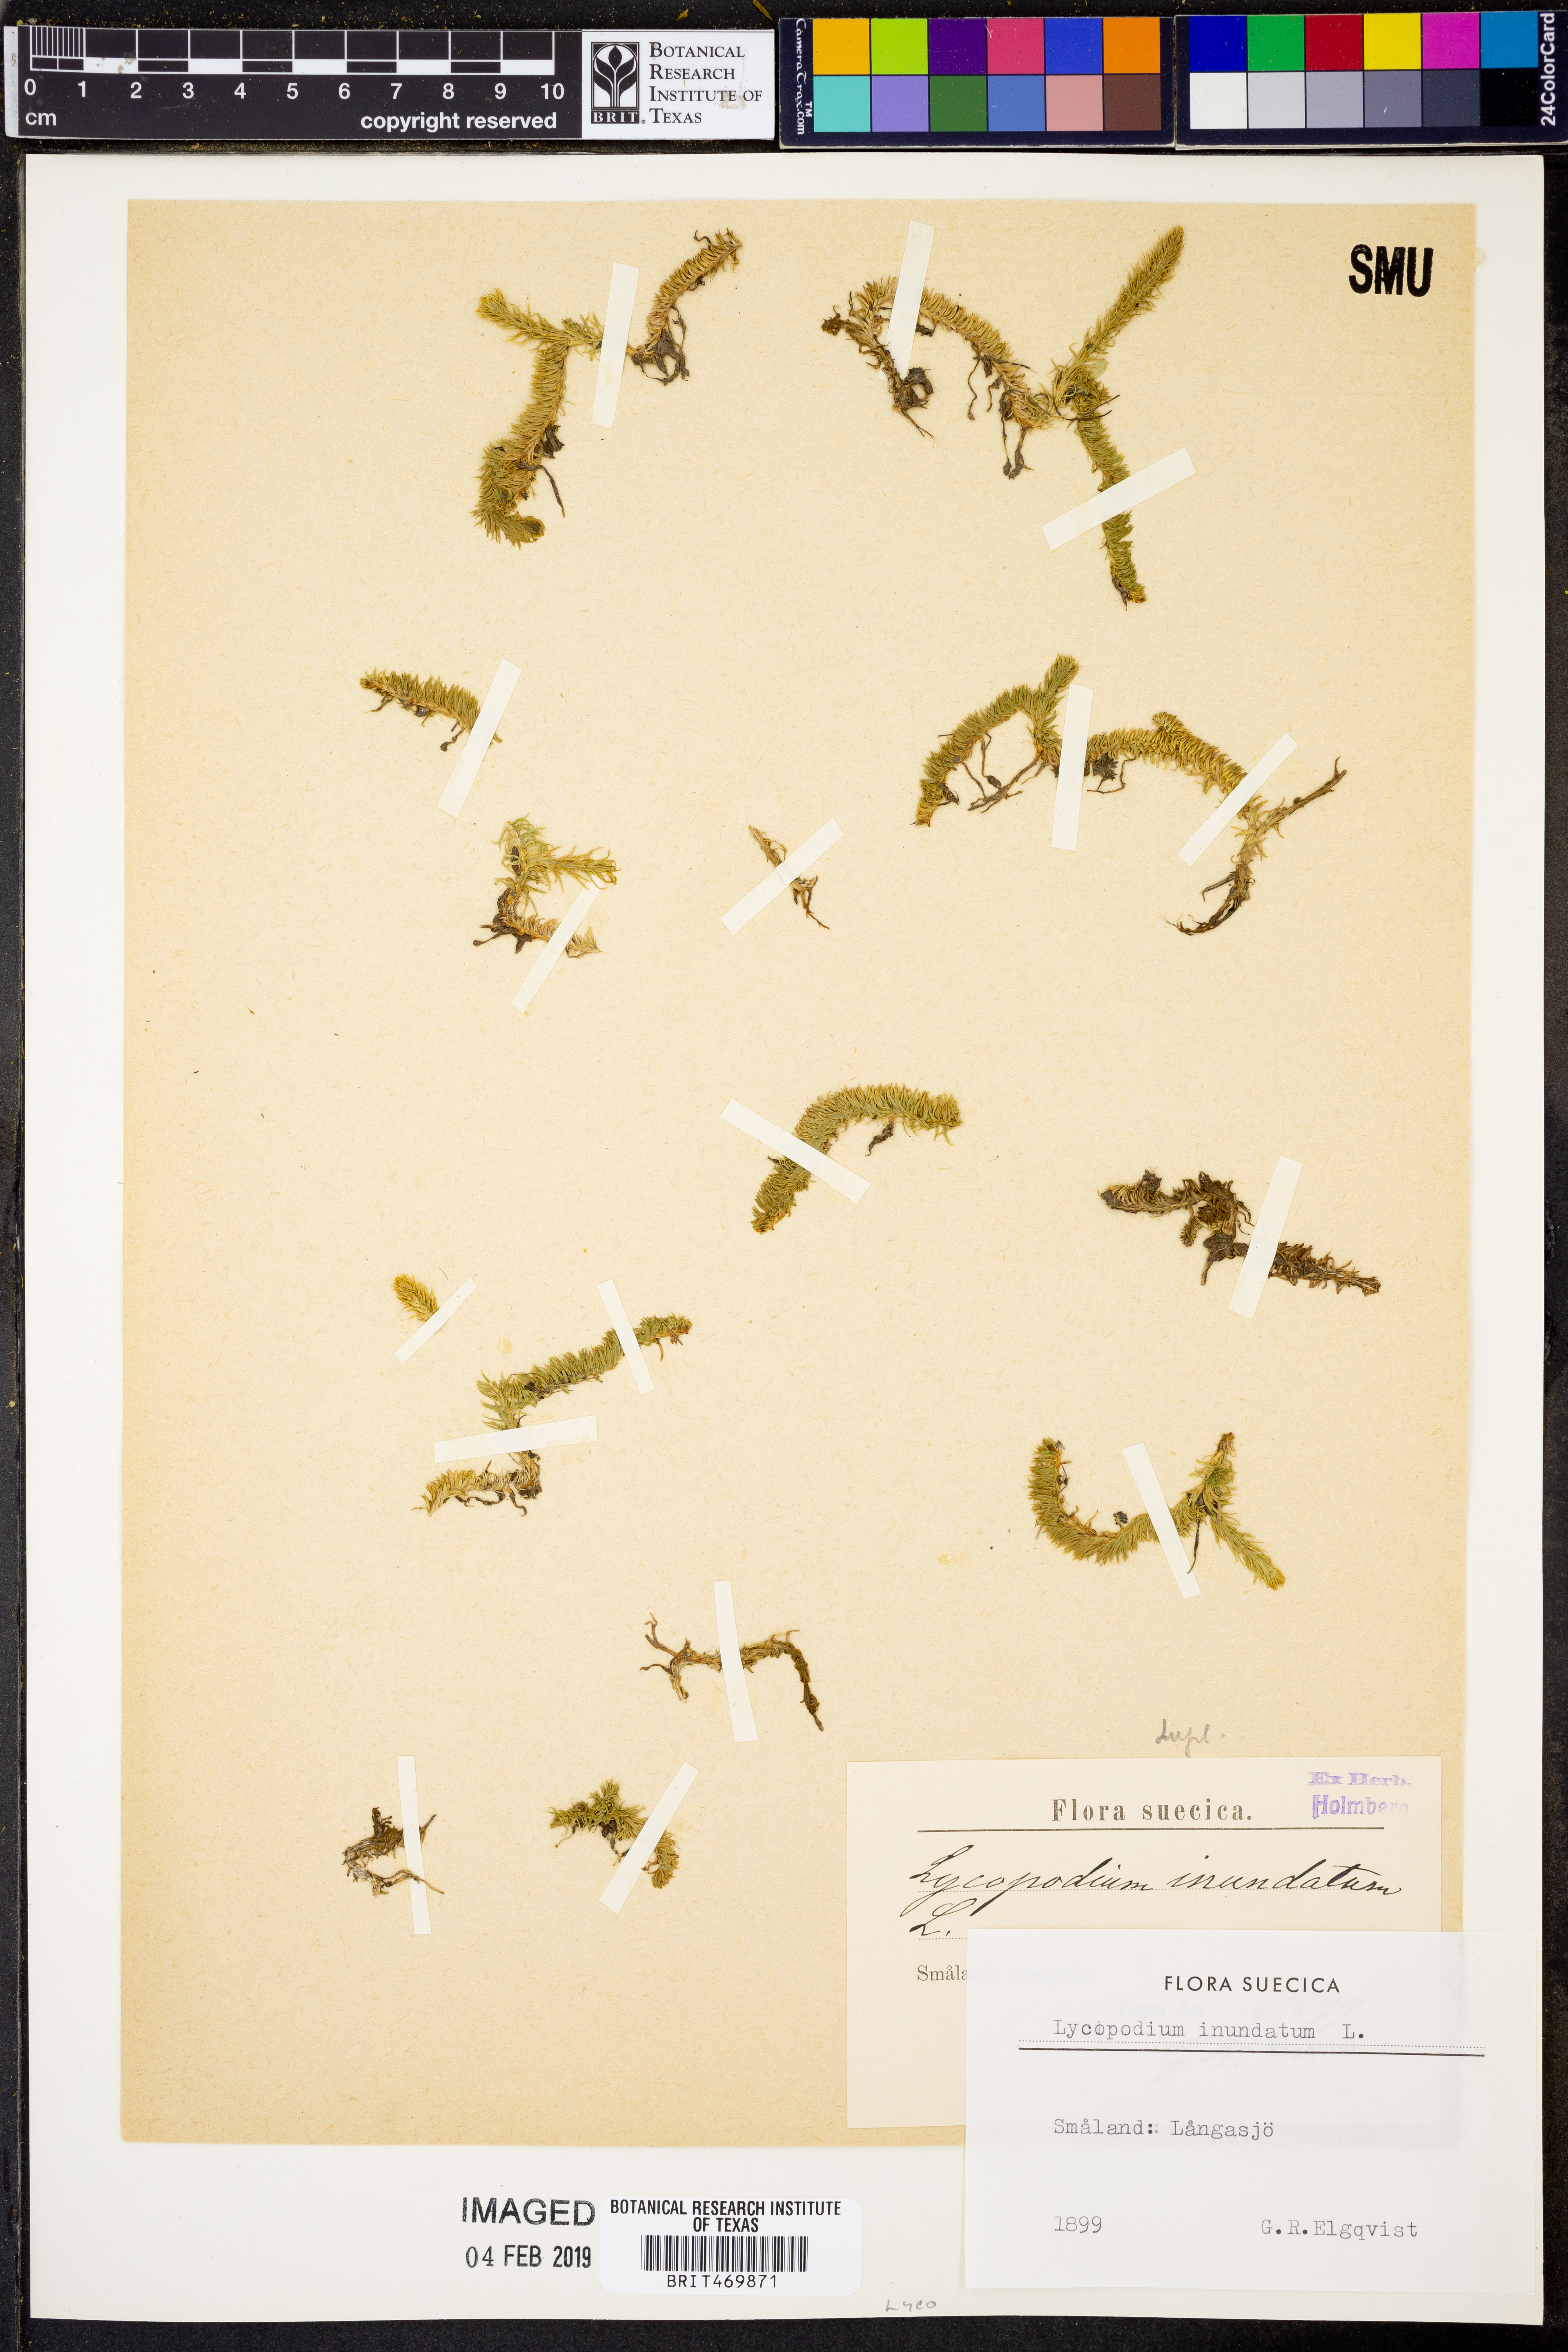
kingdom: Plantae
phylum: Tracheophyta
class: Lycopodiopsida
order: Lycopodiales
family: Lycopodiaceae
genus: Lycopodiella
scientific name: Lycopodiella inundata
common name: Marsh clubmoss
